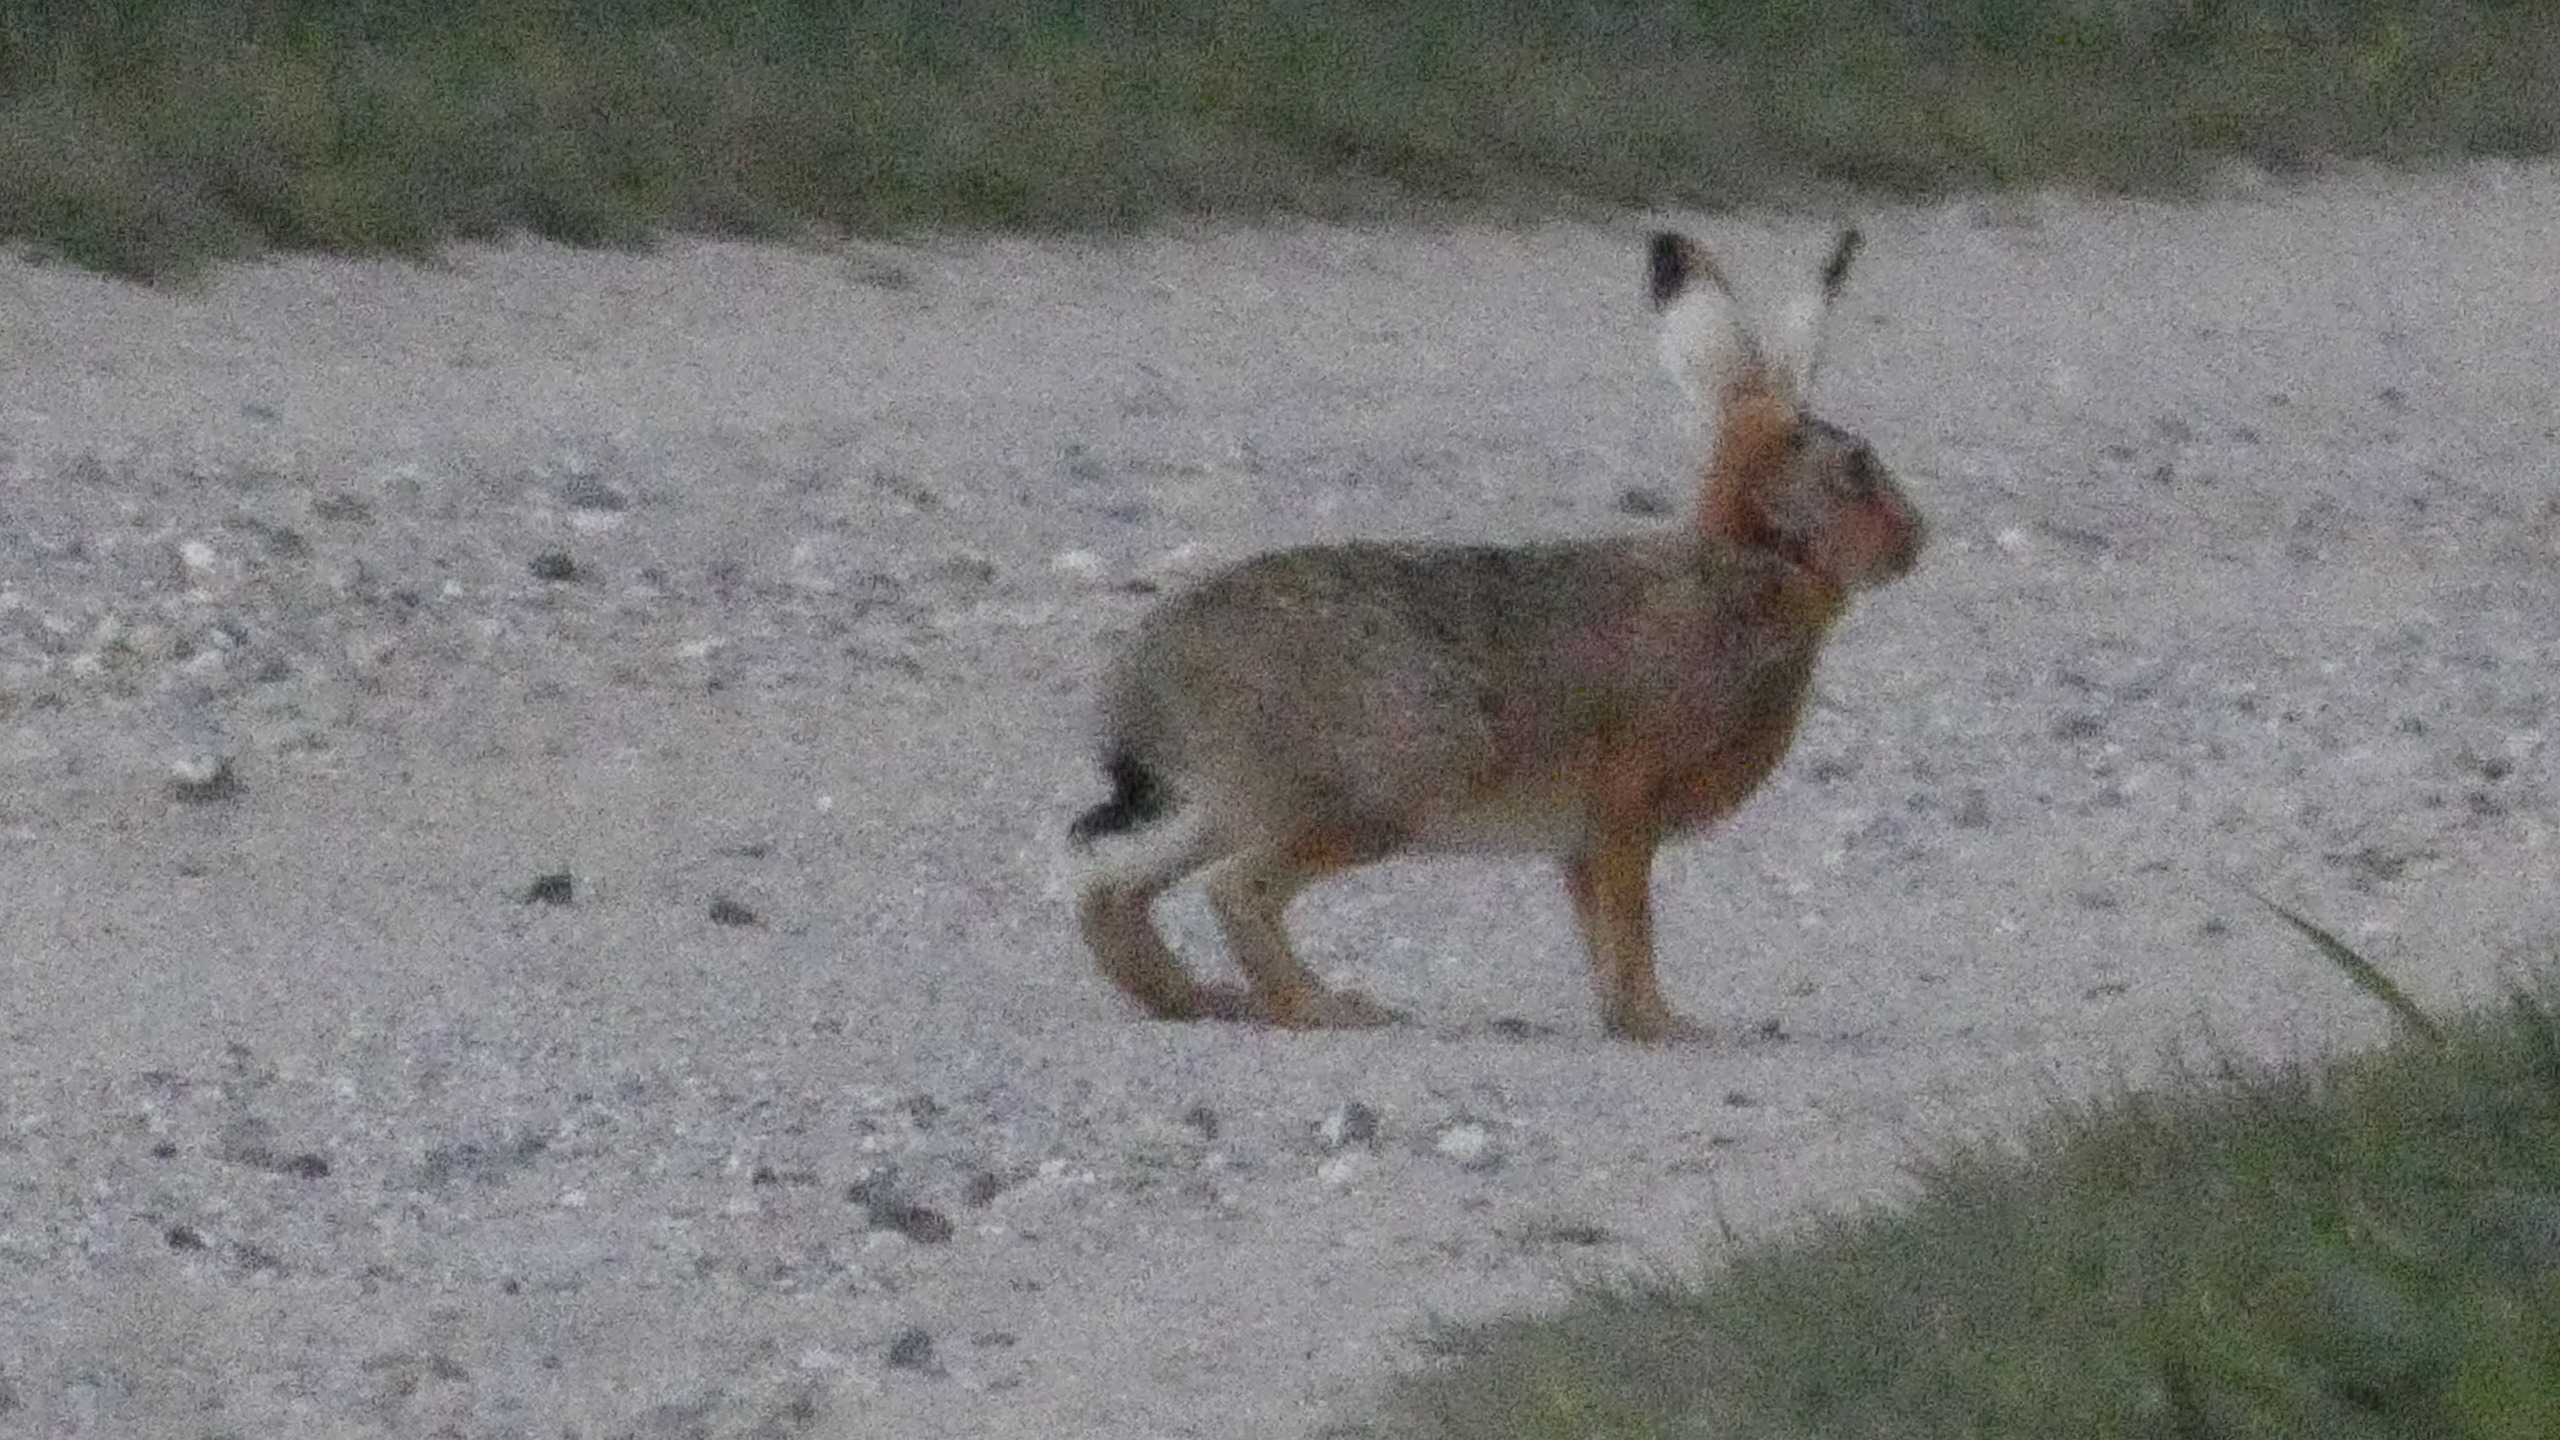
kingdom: Animalia
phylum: Chordata
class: Mammalia
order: Lagomorpha
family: Leporidae
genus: Lepus
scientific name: Lepus europaeus
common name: Hare
